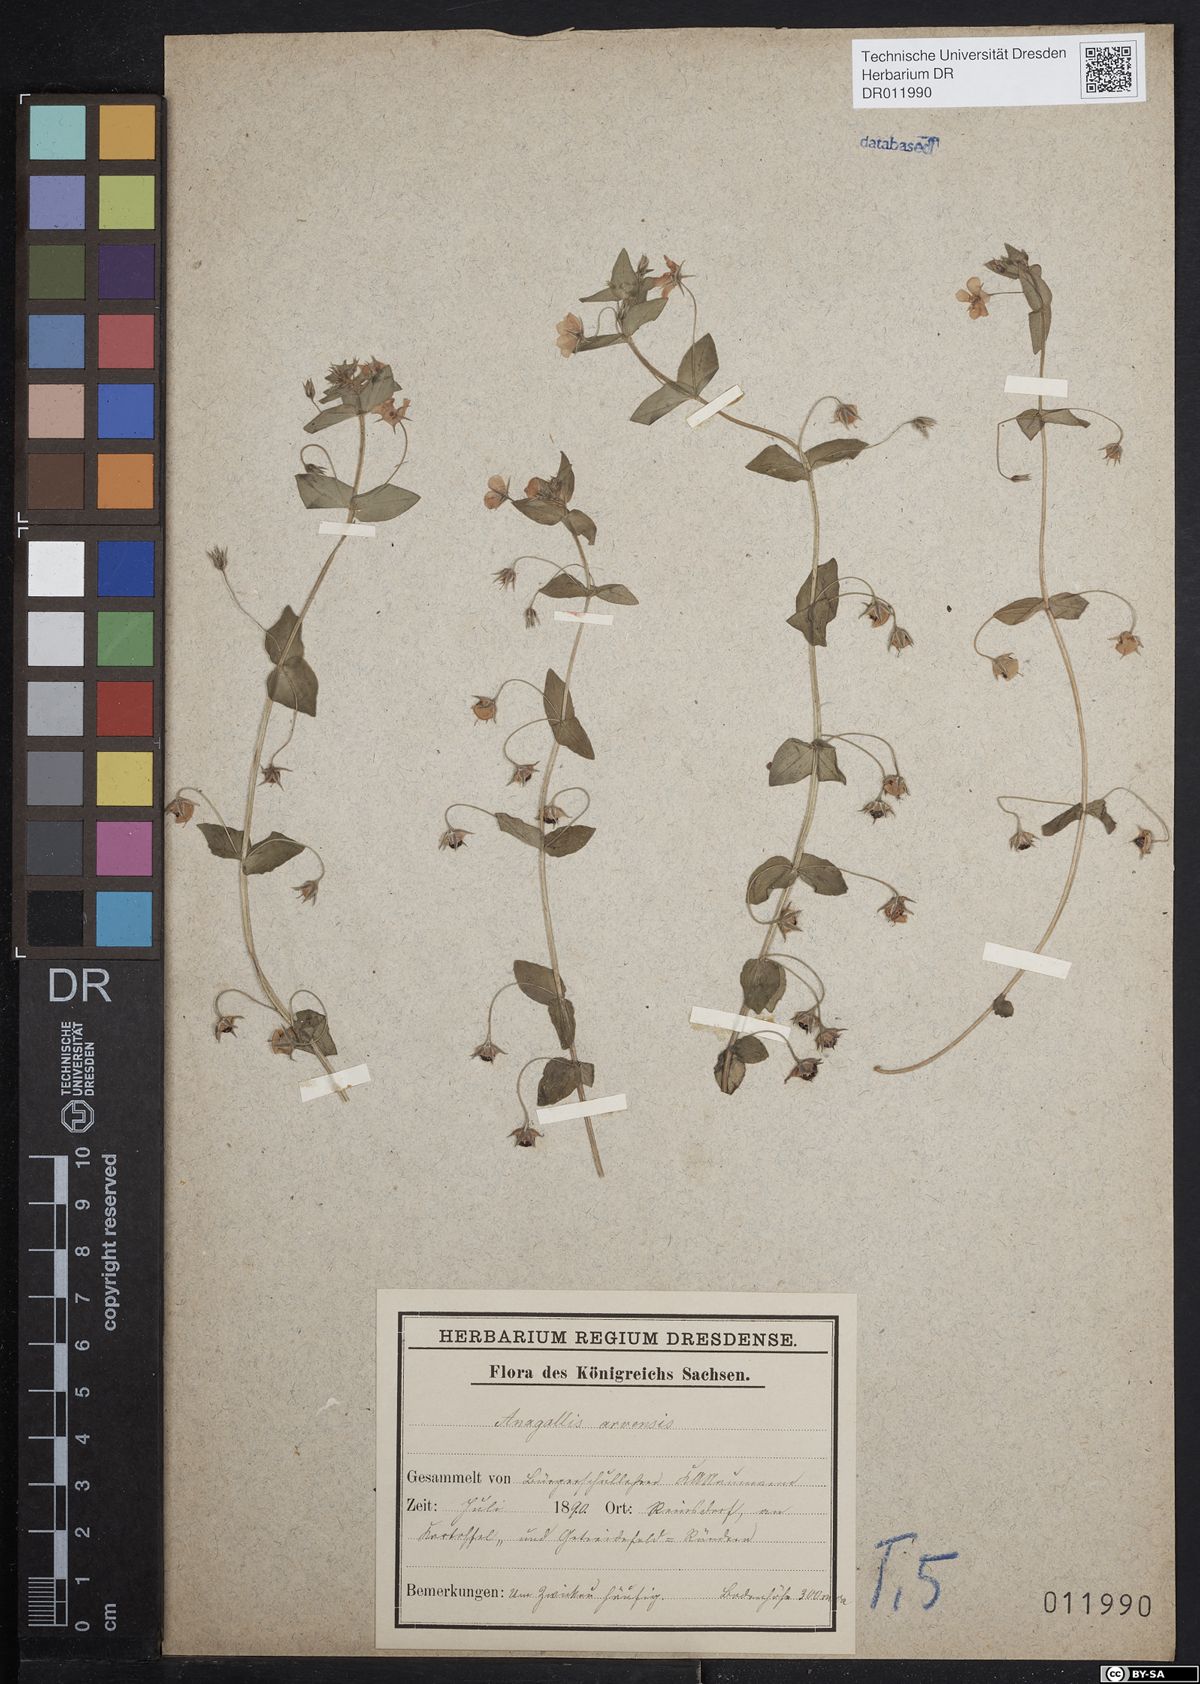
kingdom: Plantae
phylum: Tracheophyta
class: Magnoliopsida
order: Ericales
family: Primulaceae
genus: Lysimachia
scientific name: Lysimachia arvensis
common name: Scarlet pimpernel
